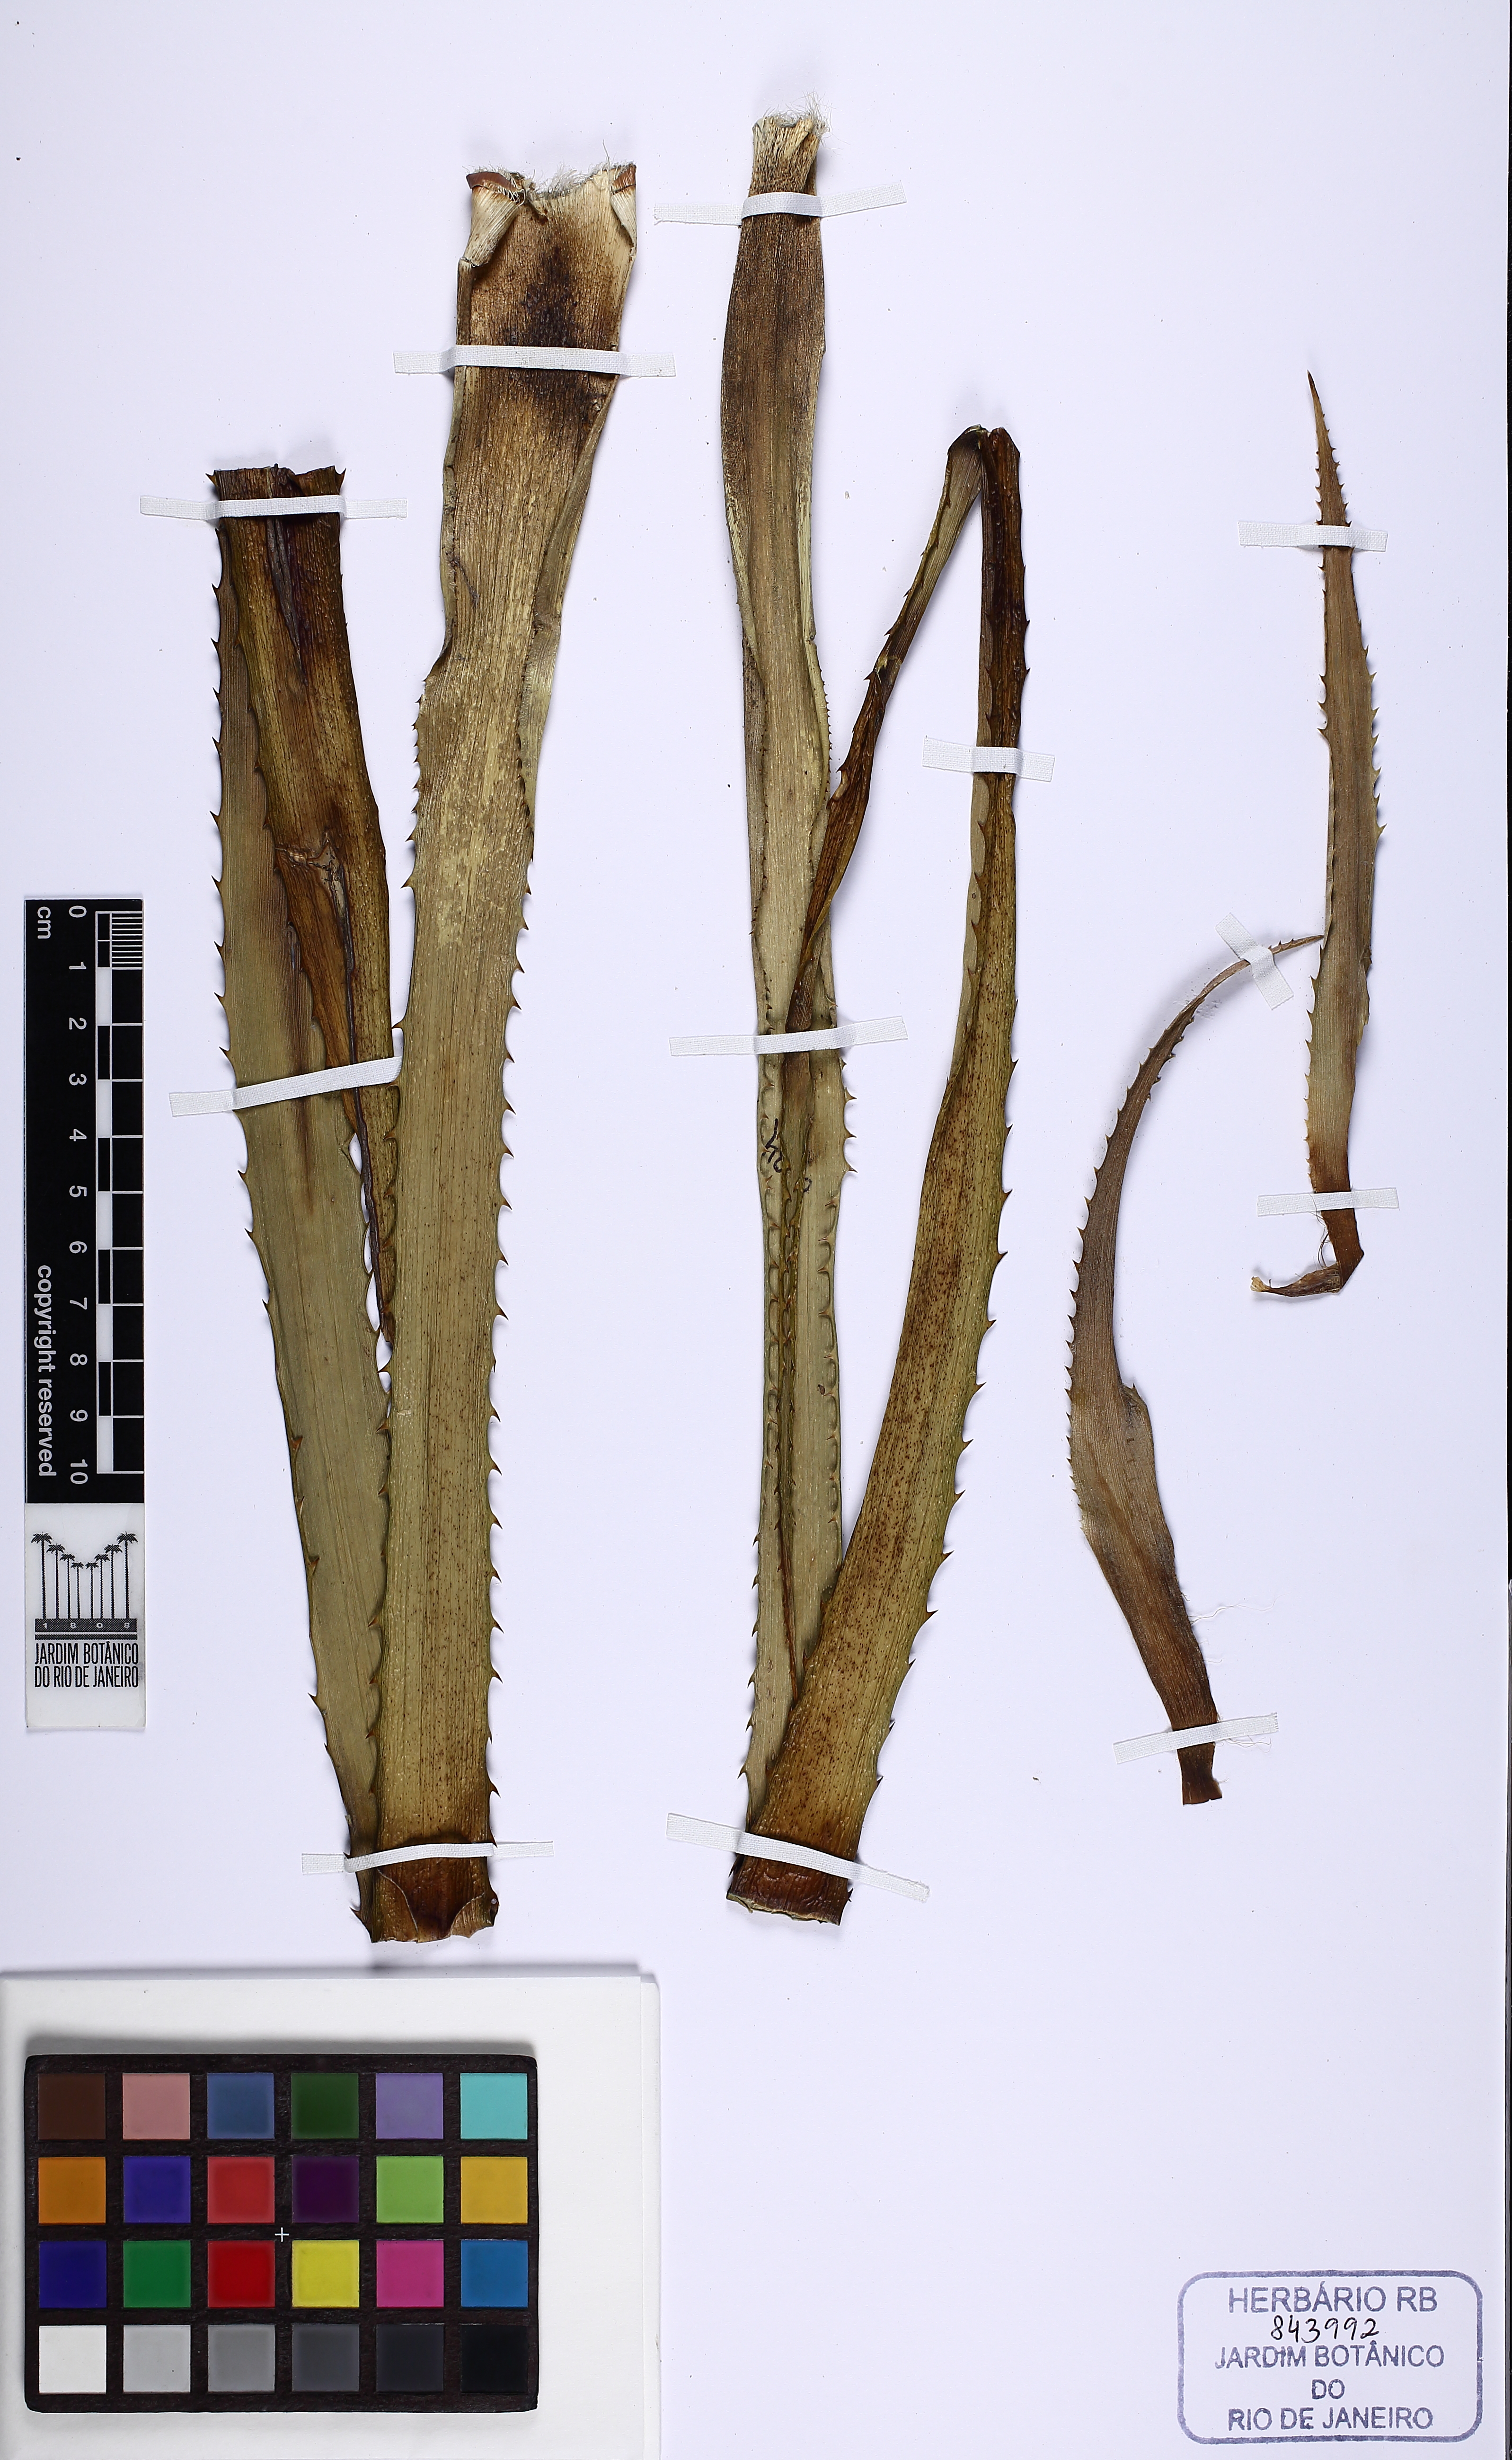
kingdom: Plantae
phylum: Tracheophyta
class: Liliopsida
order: Poales
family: Bromeliaceae
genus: Ananas
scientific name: Ananas comosus
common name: Pineapple
